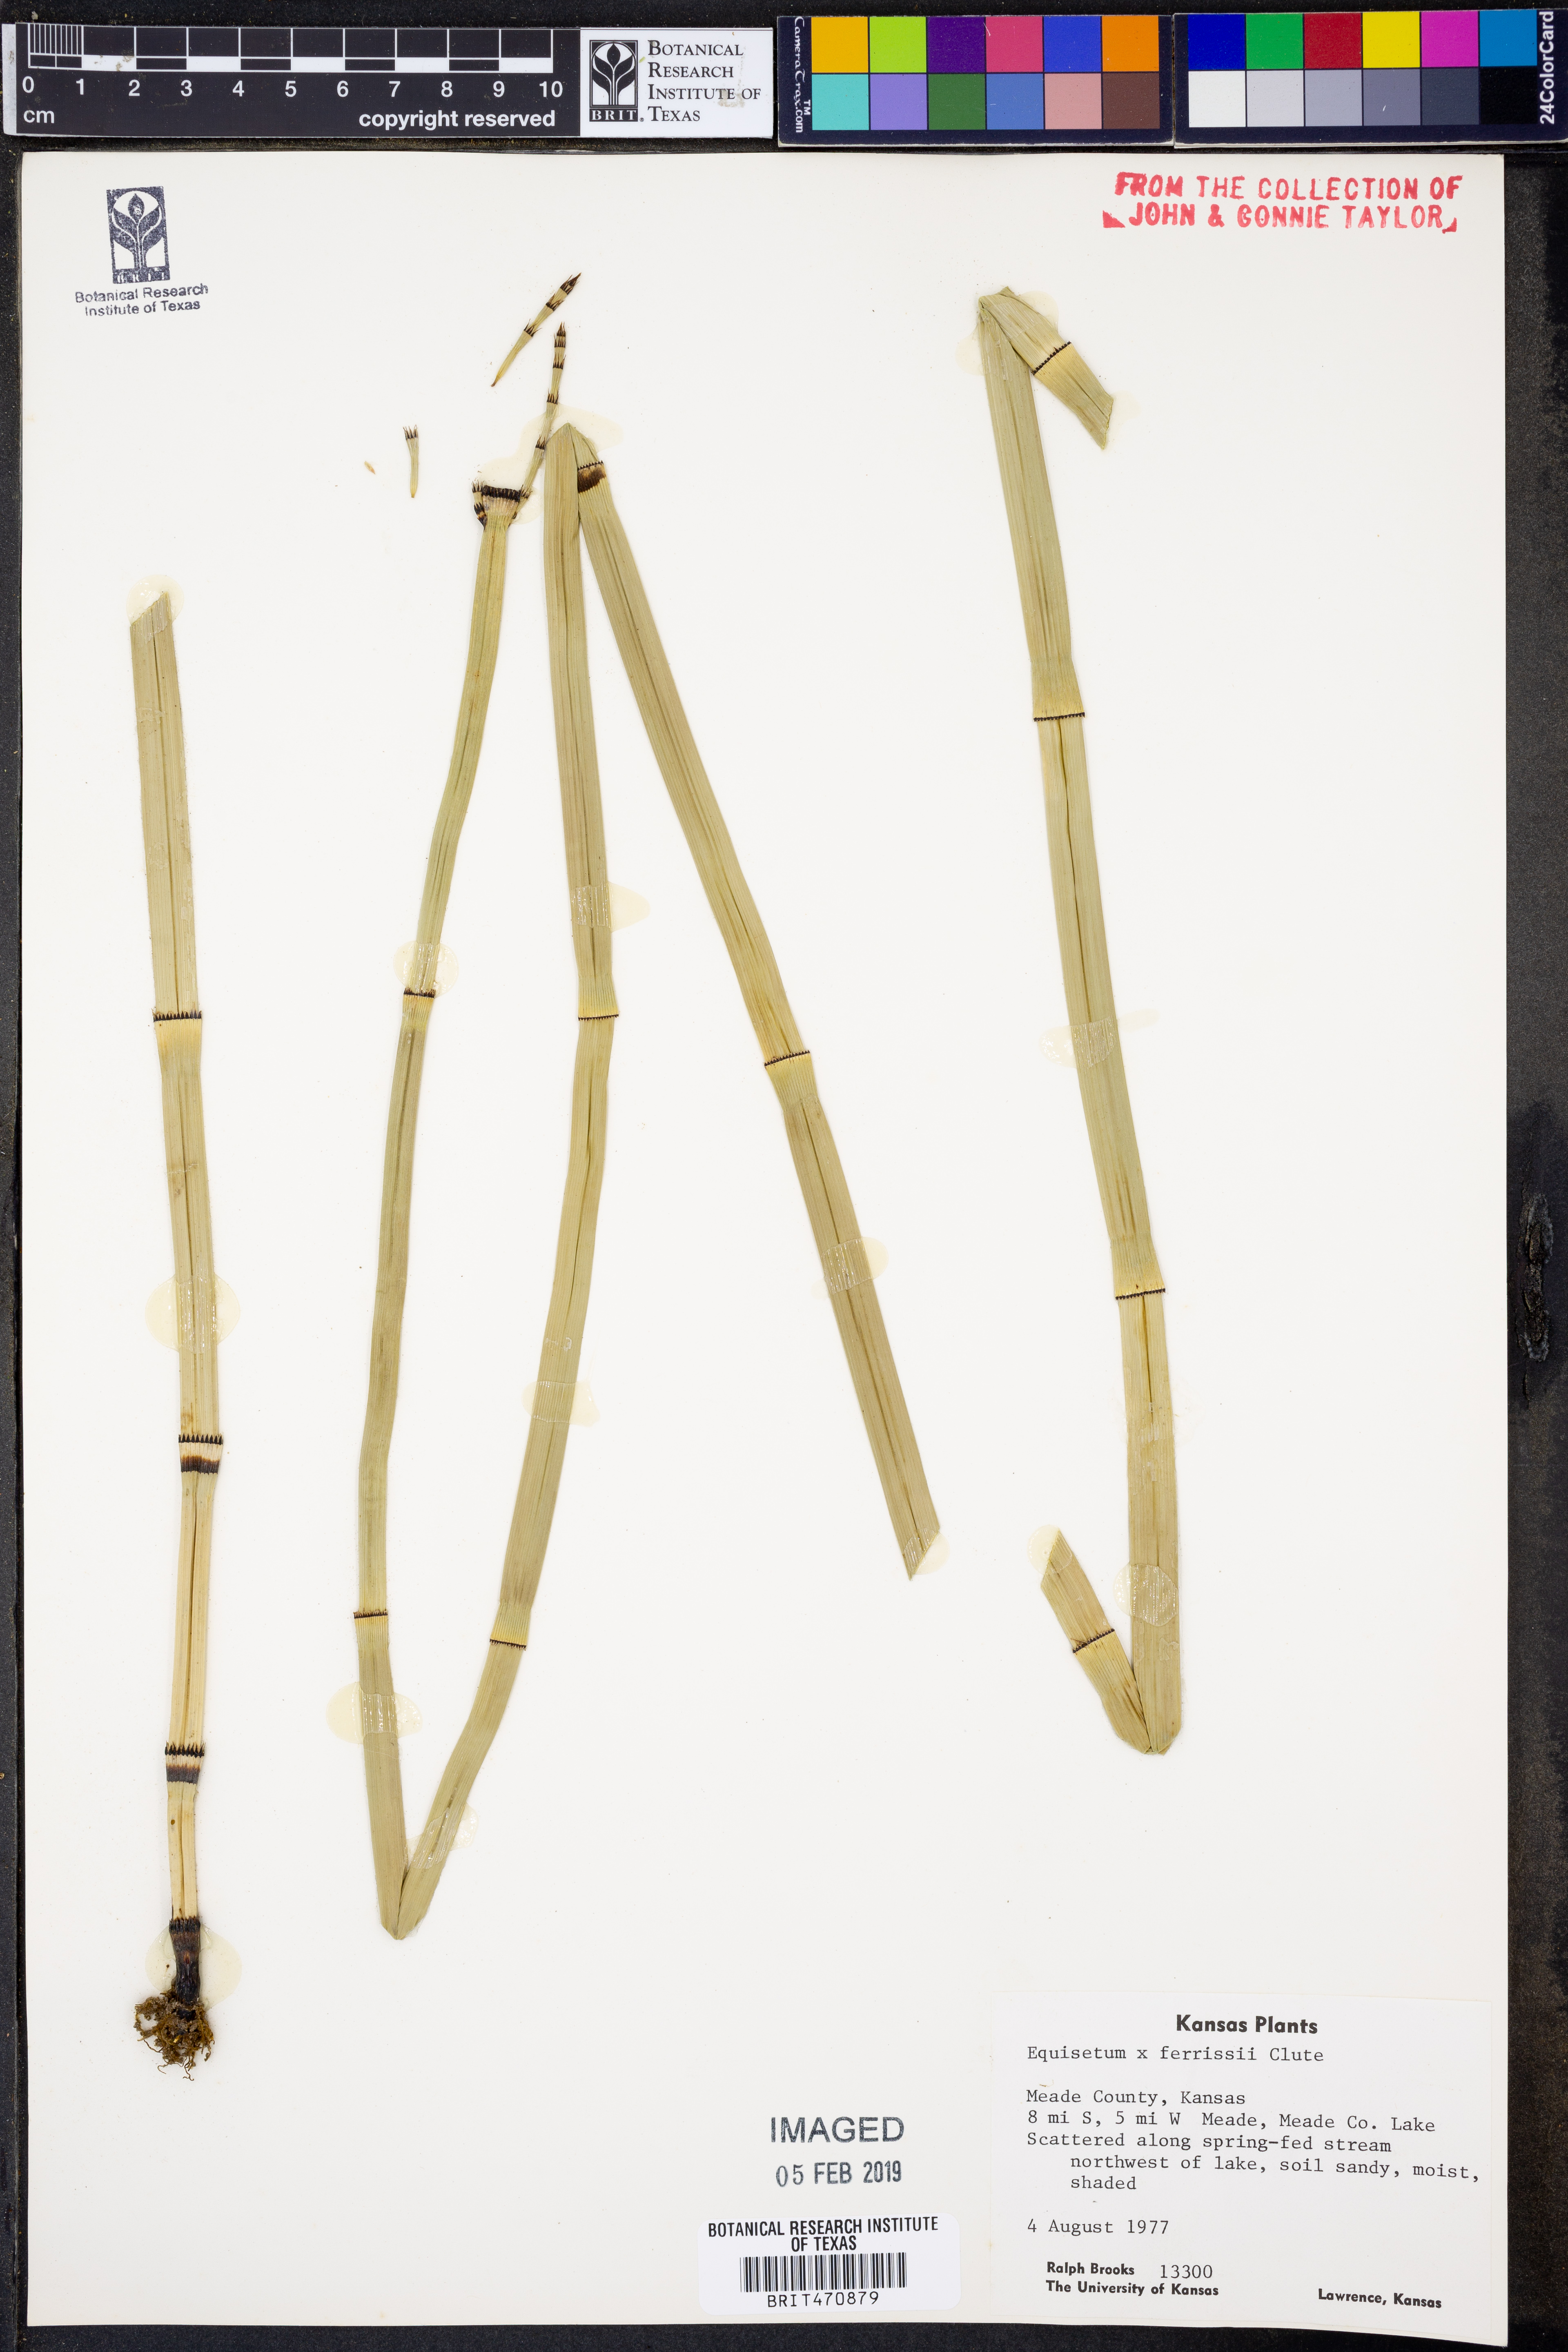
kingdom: Plantae
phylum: Tracheophyta
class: Polypodiopsida
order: Equisetales
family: Equisetaceae
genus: Equisetum
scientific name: Equisetum ferrissii
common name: Ferriss' horsetail
